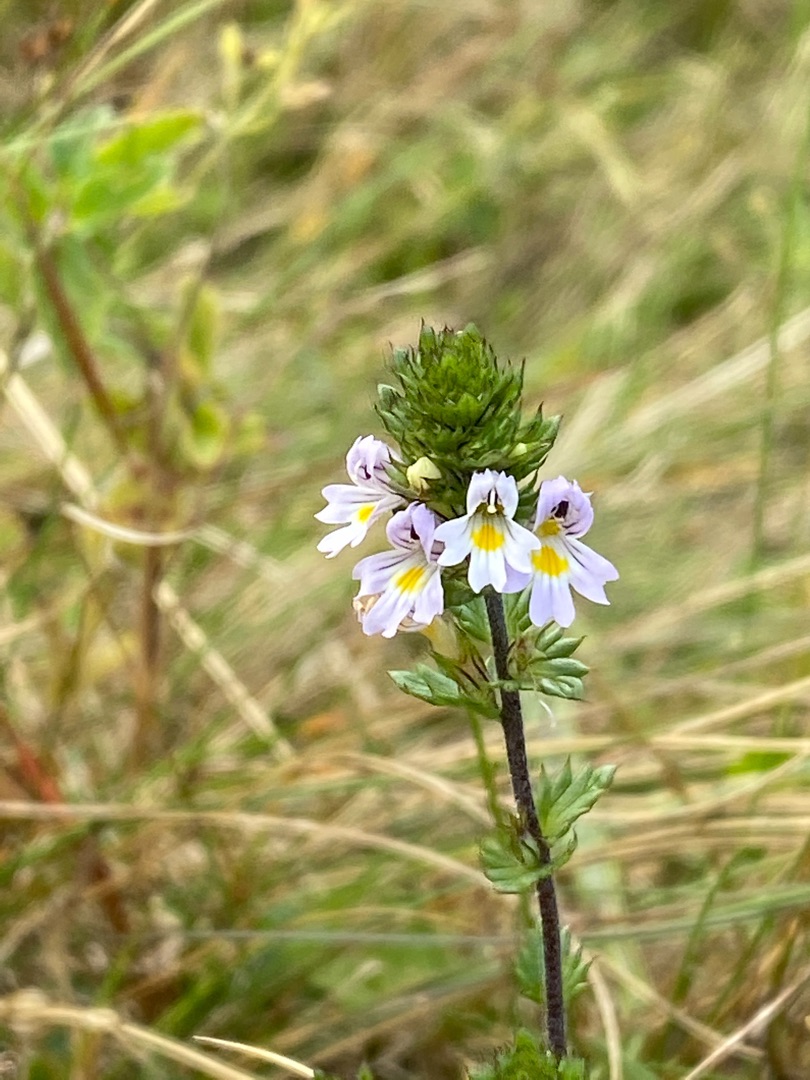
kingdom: Plantae
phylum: Tracheophyta
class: Magnoliopsida
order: Lamiales
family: Orobanchaceae
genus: Euphrasia
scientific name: Euphrasia stricta
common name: Spids øjentrøst
